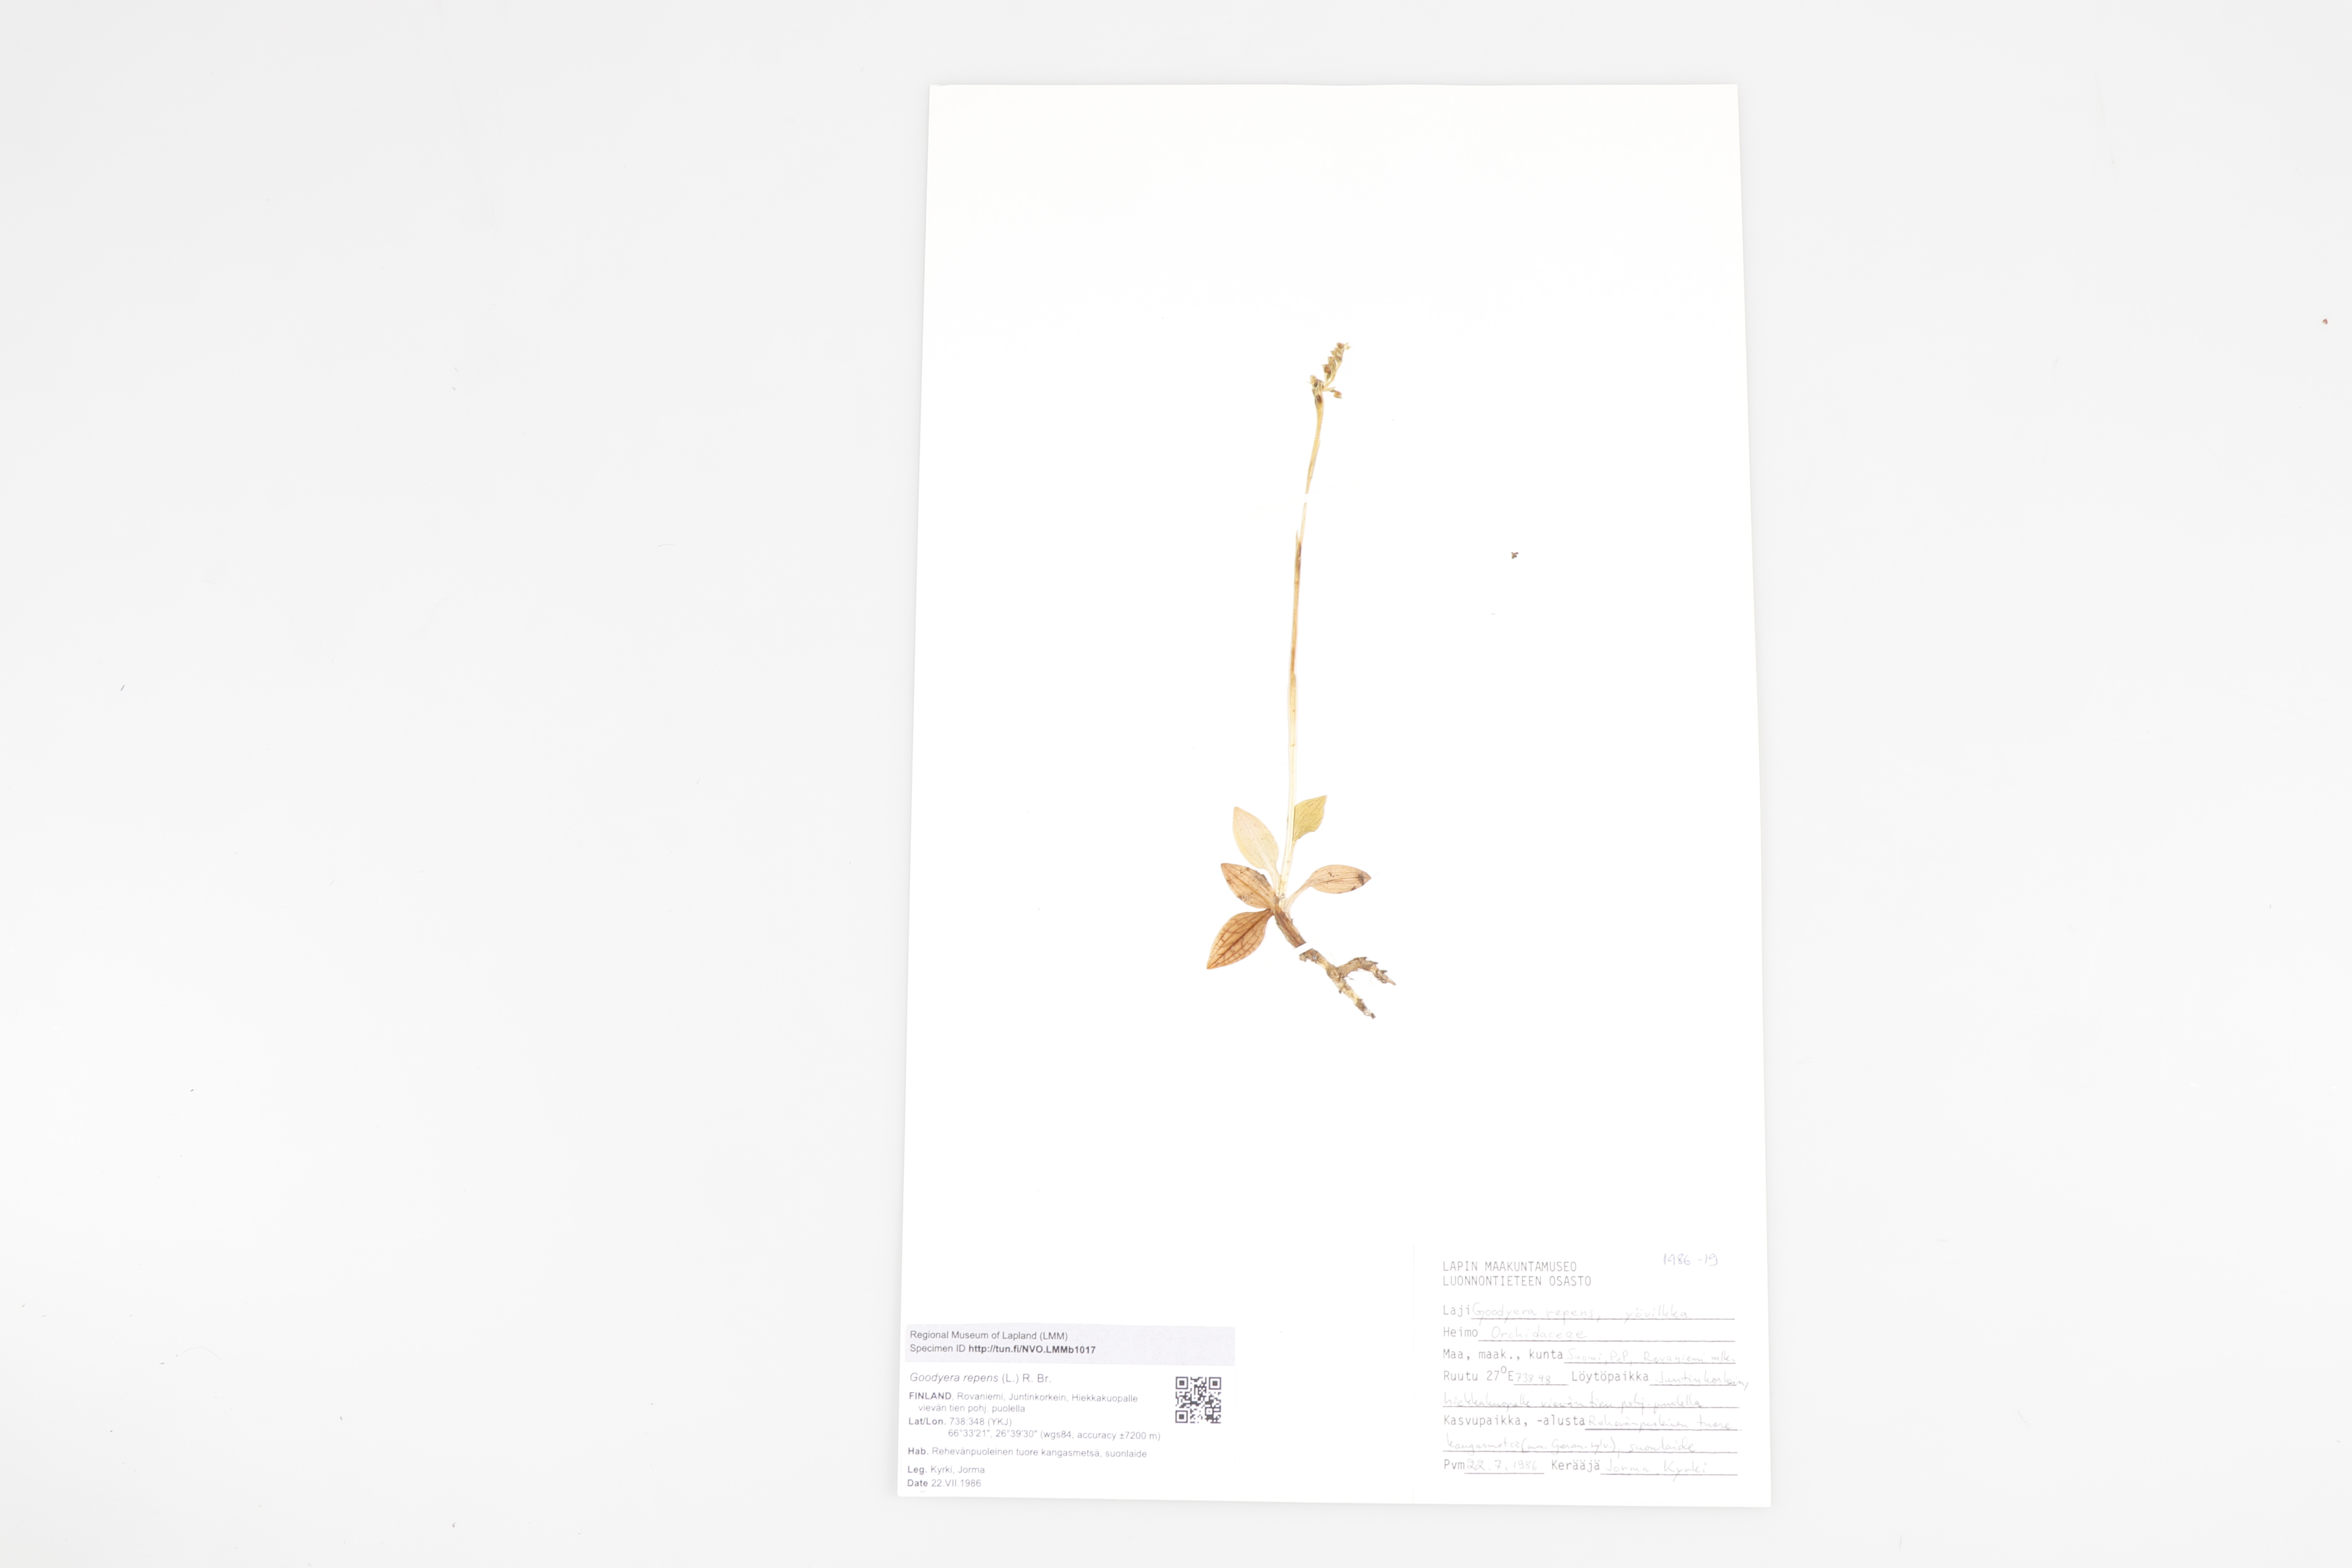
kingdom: Plantae
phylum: Tracheophyta
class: Liliopsida
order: Asparagales
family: Orchidaceae
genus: Goodyera
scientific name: Goodyera repens
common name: Creeping lady's-tresses
